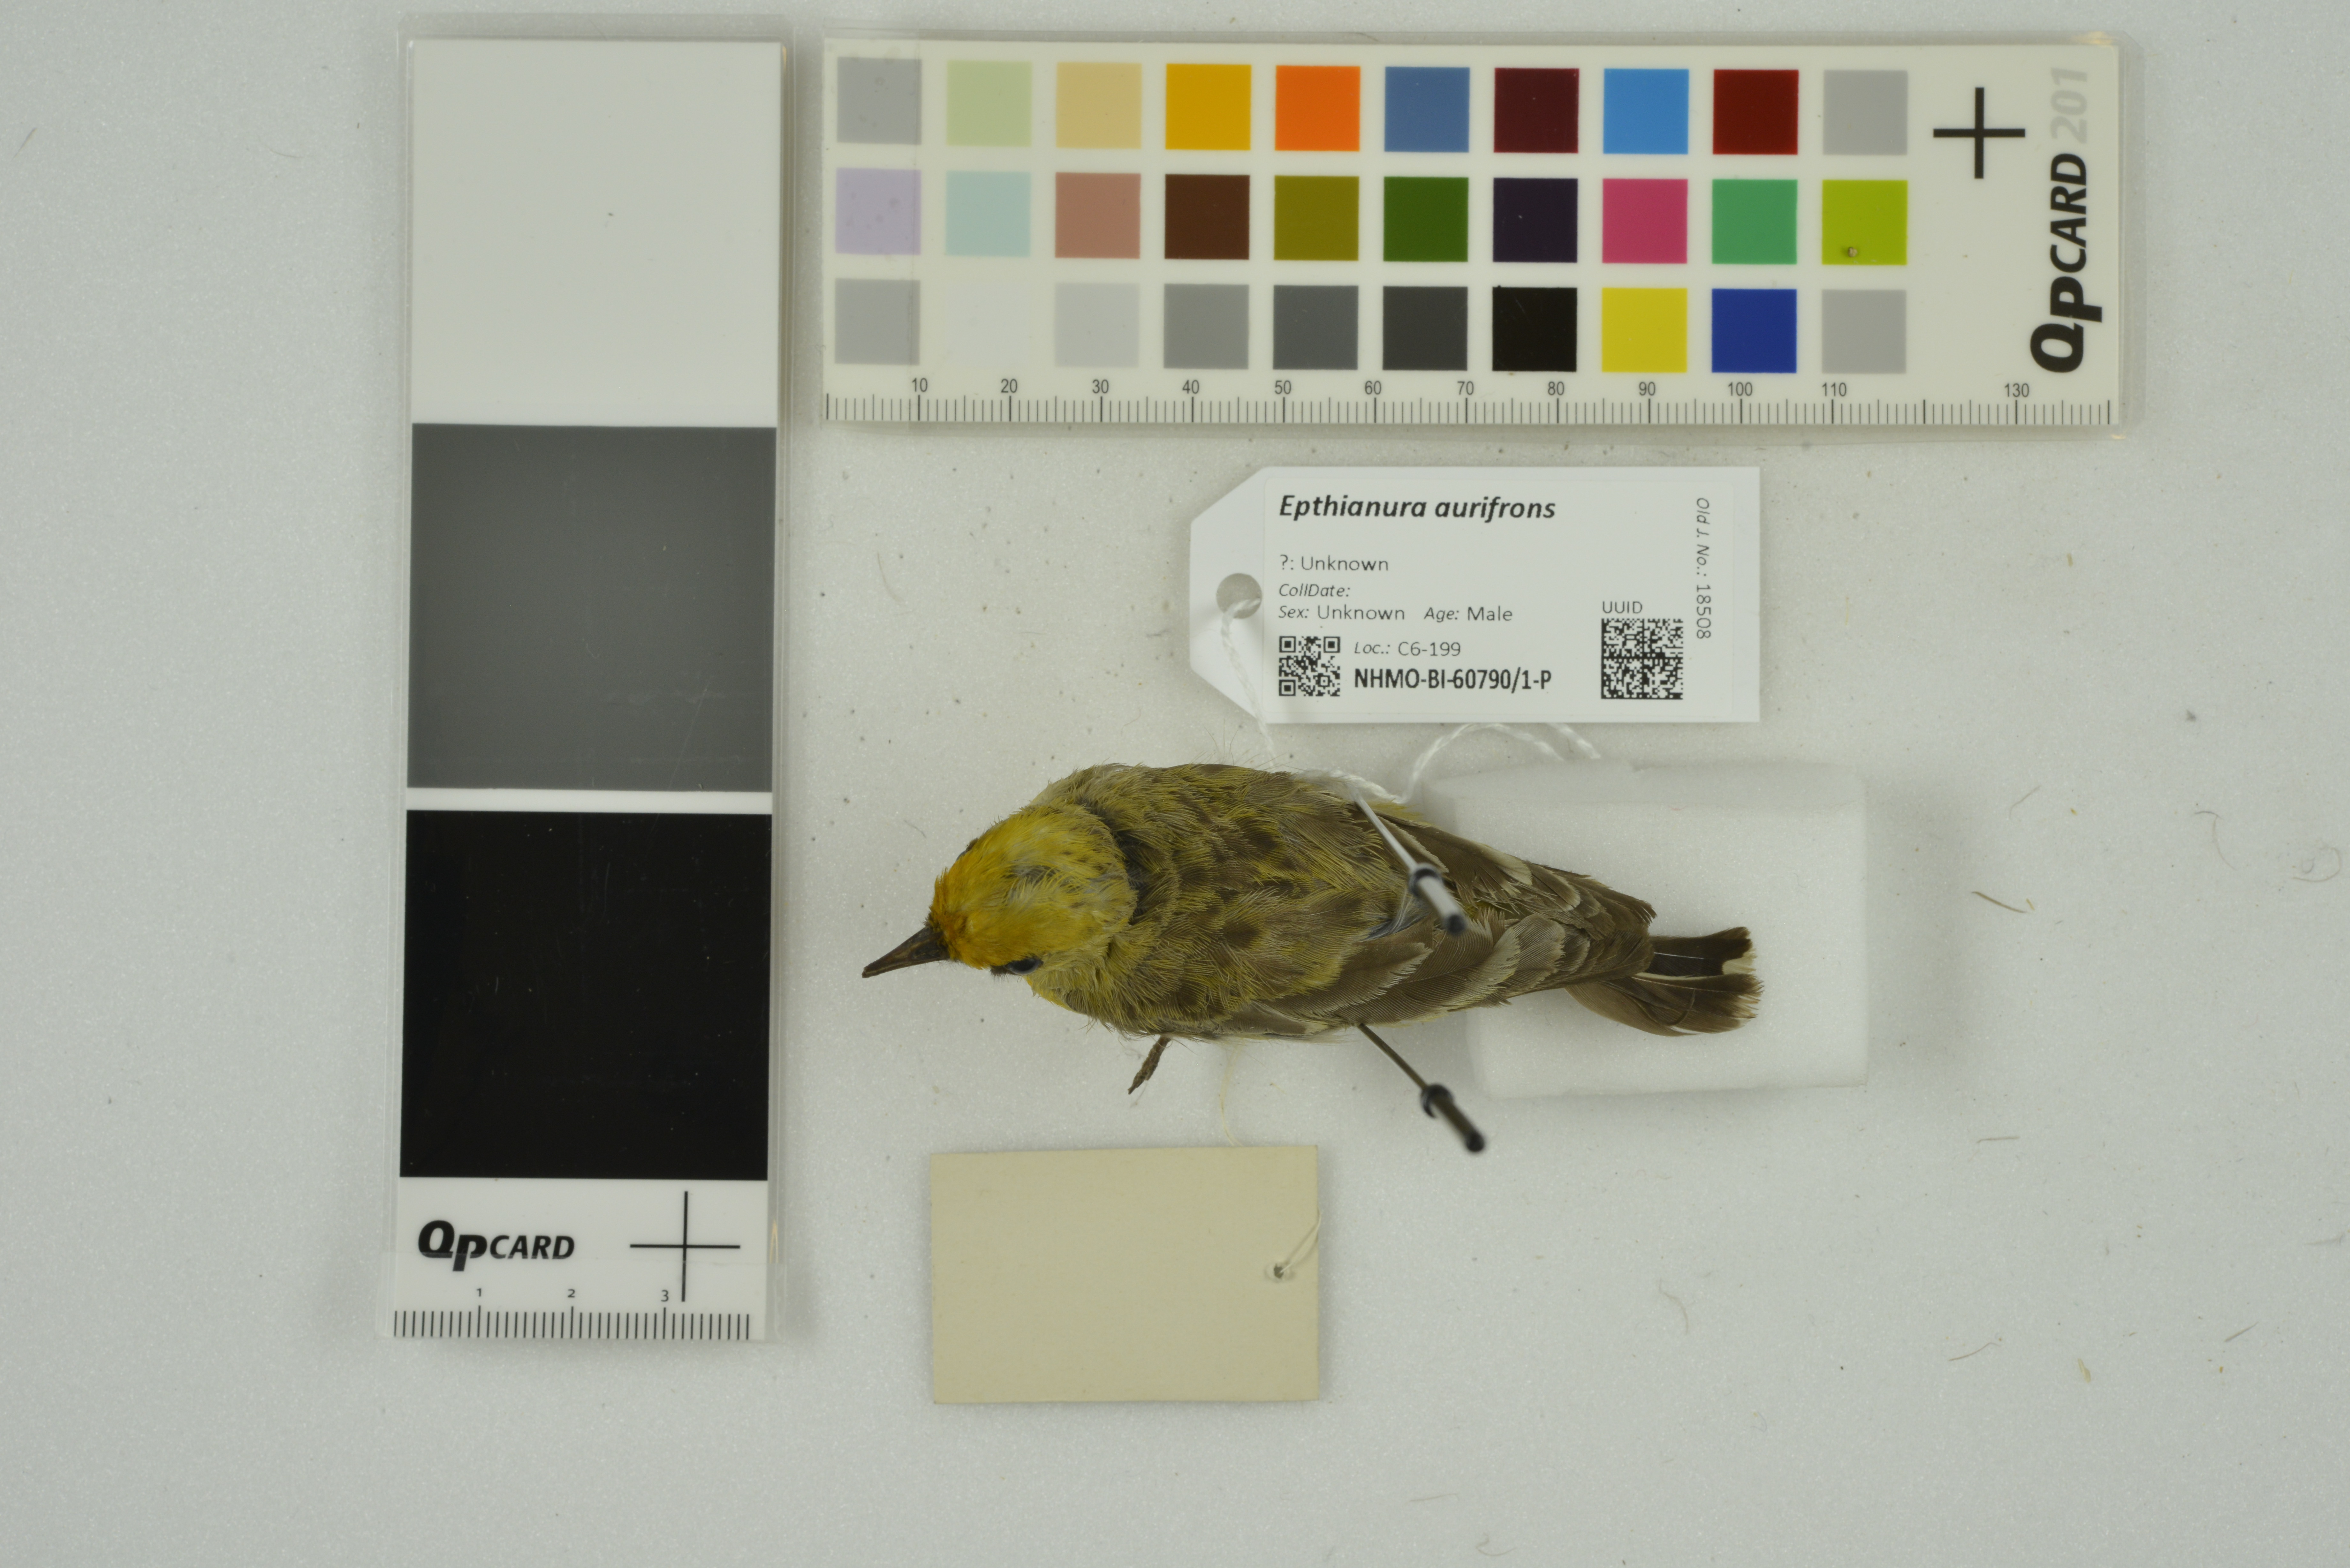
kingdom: Animalia
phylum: Chordata
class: Aves
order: Passeriformes
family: Meliphagidae
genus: Epthianura
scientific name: Epthianura aurifrons
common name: Orange chat
